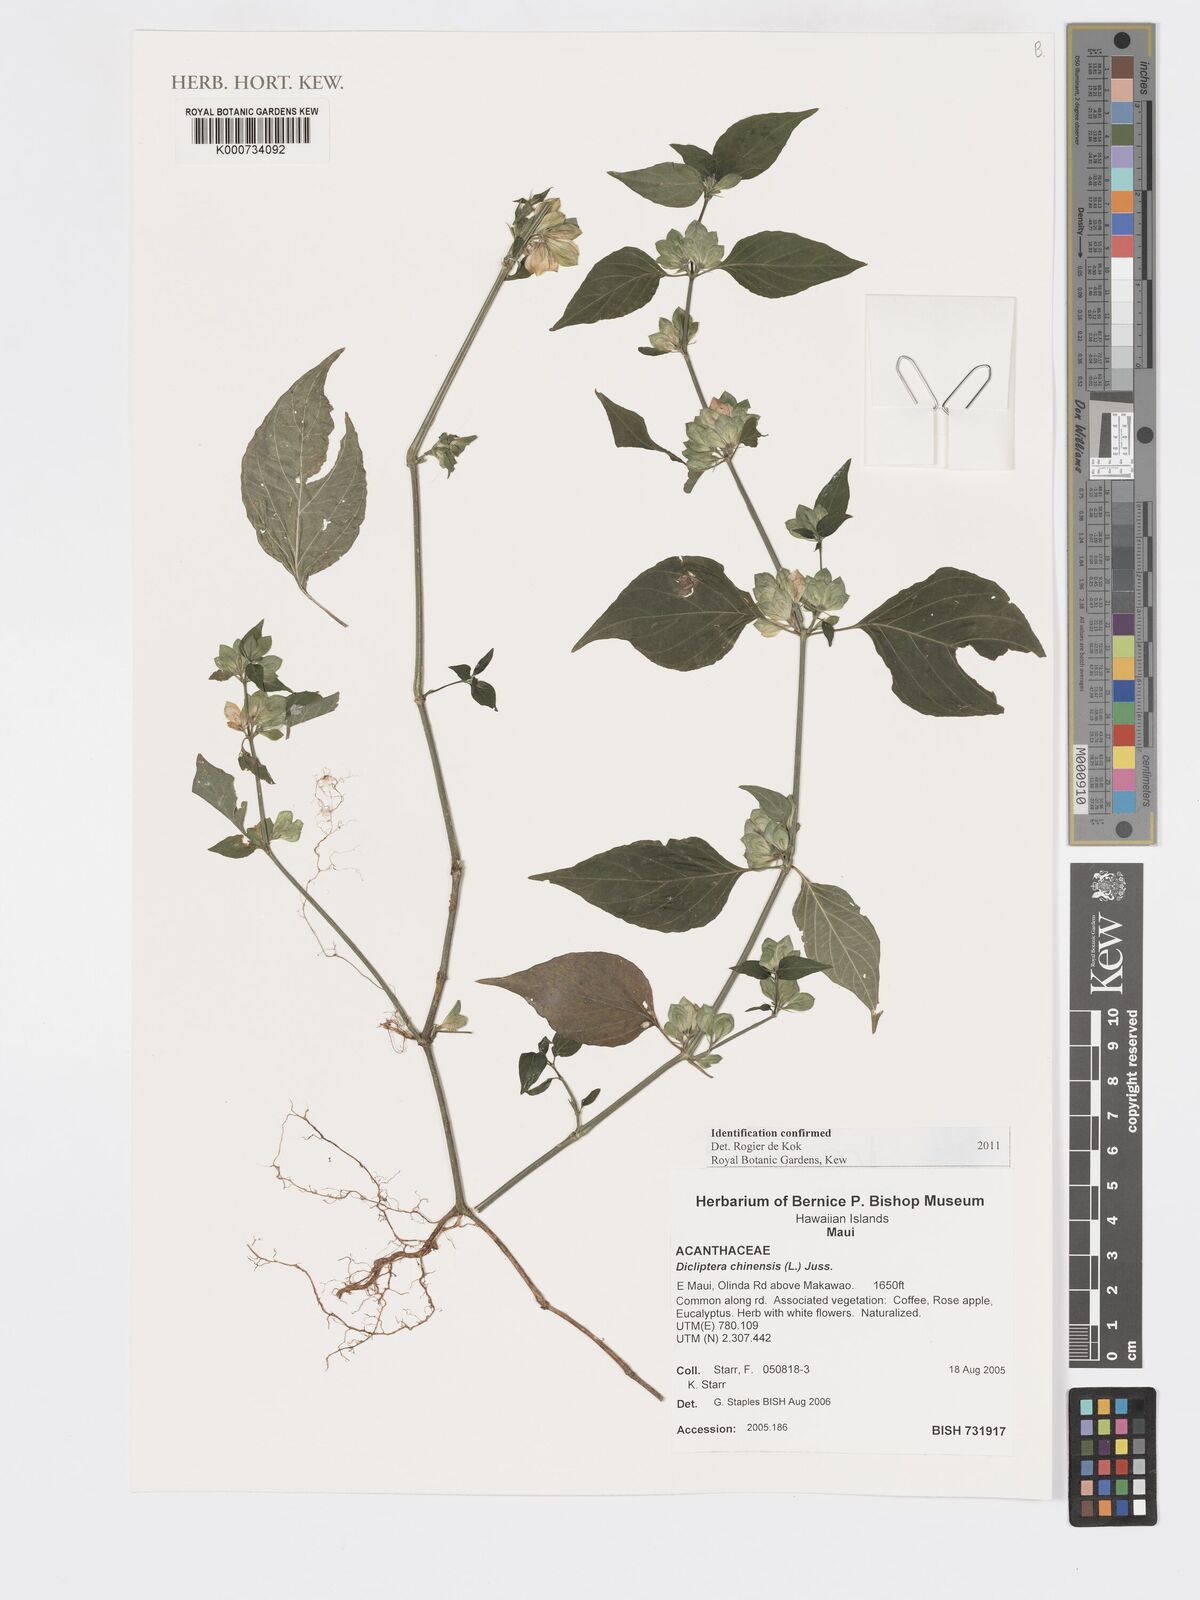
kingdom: Plantae
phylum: Tracheophyta
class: Magnoliopsida
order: Lamiales
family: Acanthaceae
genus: Dicliptera
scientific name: Dicliptera chinensis
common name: Chinese foldwing
